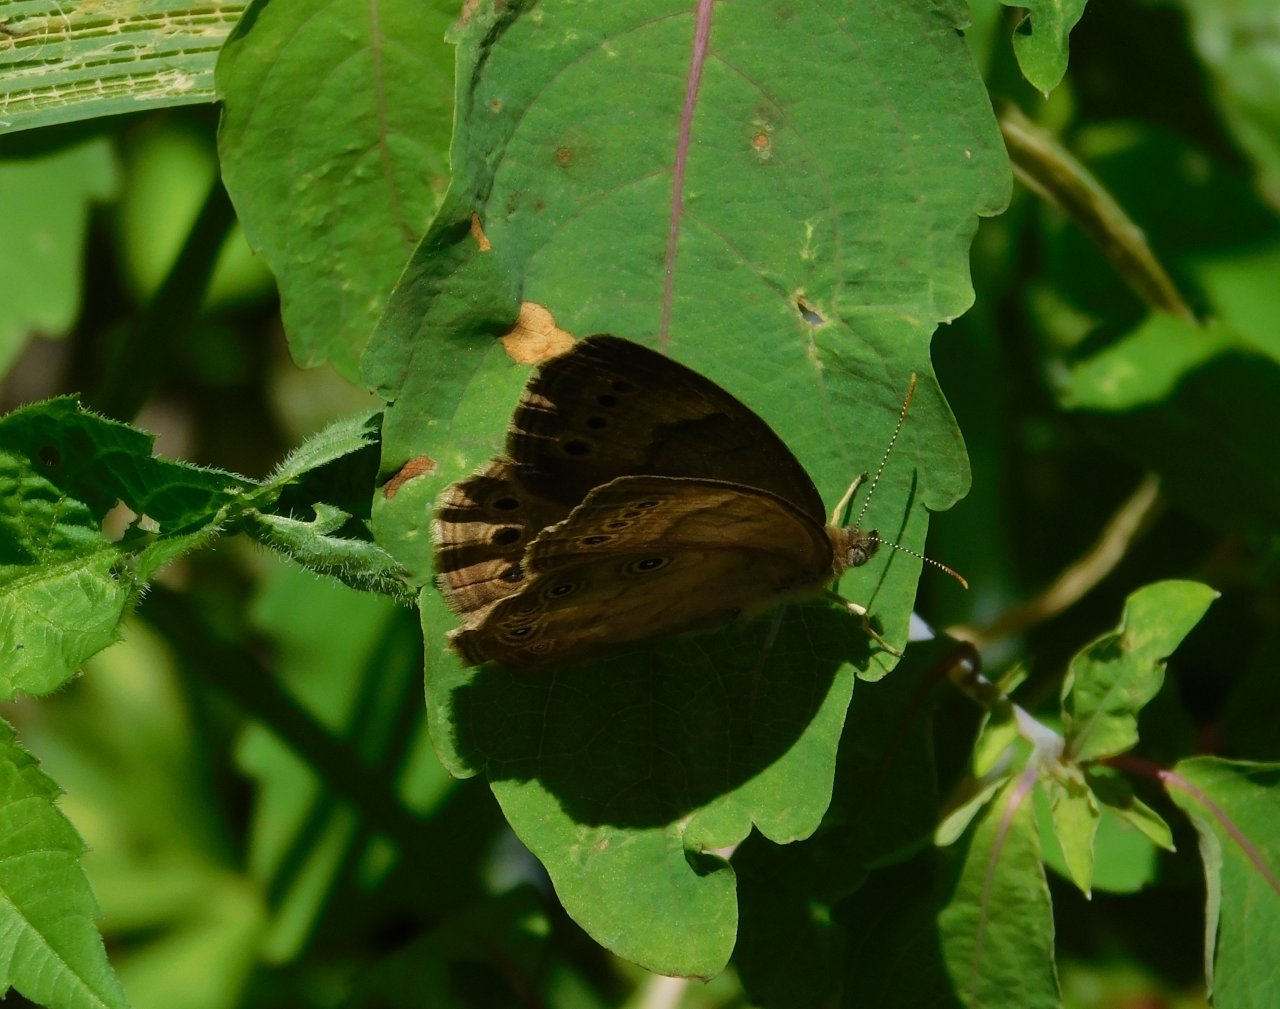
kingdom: Animalia
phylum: Arthropoda
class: Insecta
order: Lepidoptera
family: Nymphalidae
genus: Lethe
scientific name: Lethe eurydice
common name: Eyed Brown
